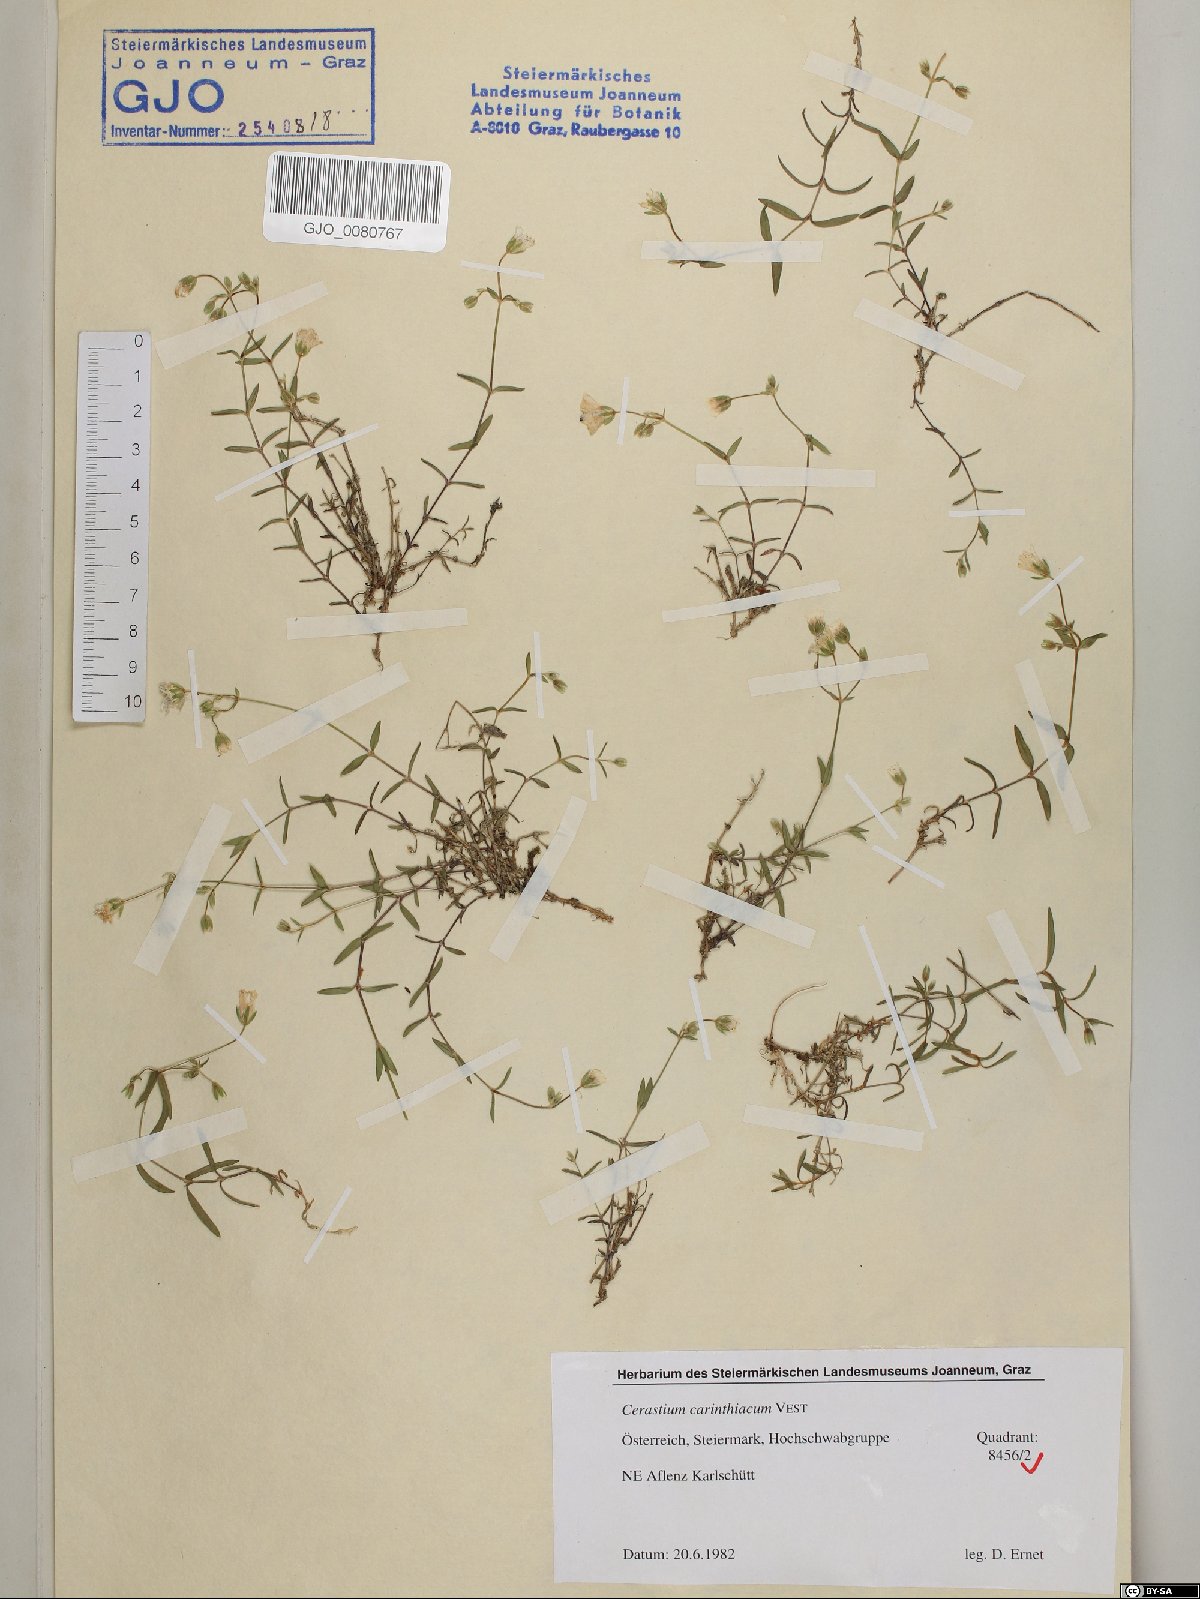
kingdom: Plantae
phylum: Tracheophyta
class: Magnoliopsida
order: Caryophyllales
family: Caryophyllaceae
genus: Cerastium
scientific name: Cerastium carinthiacum
